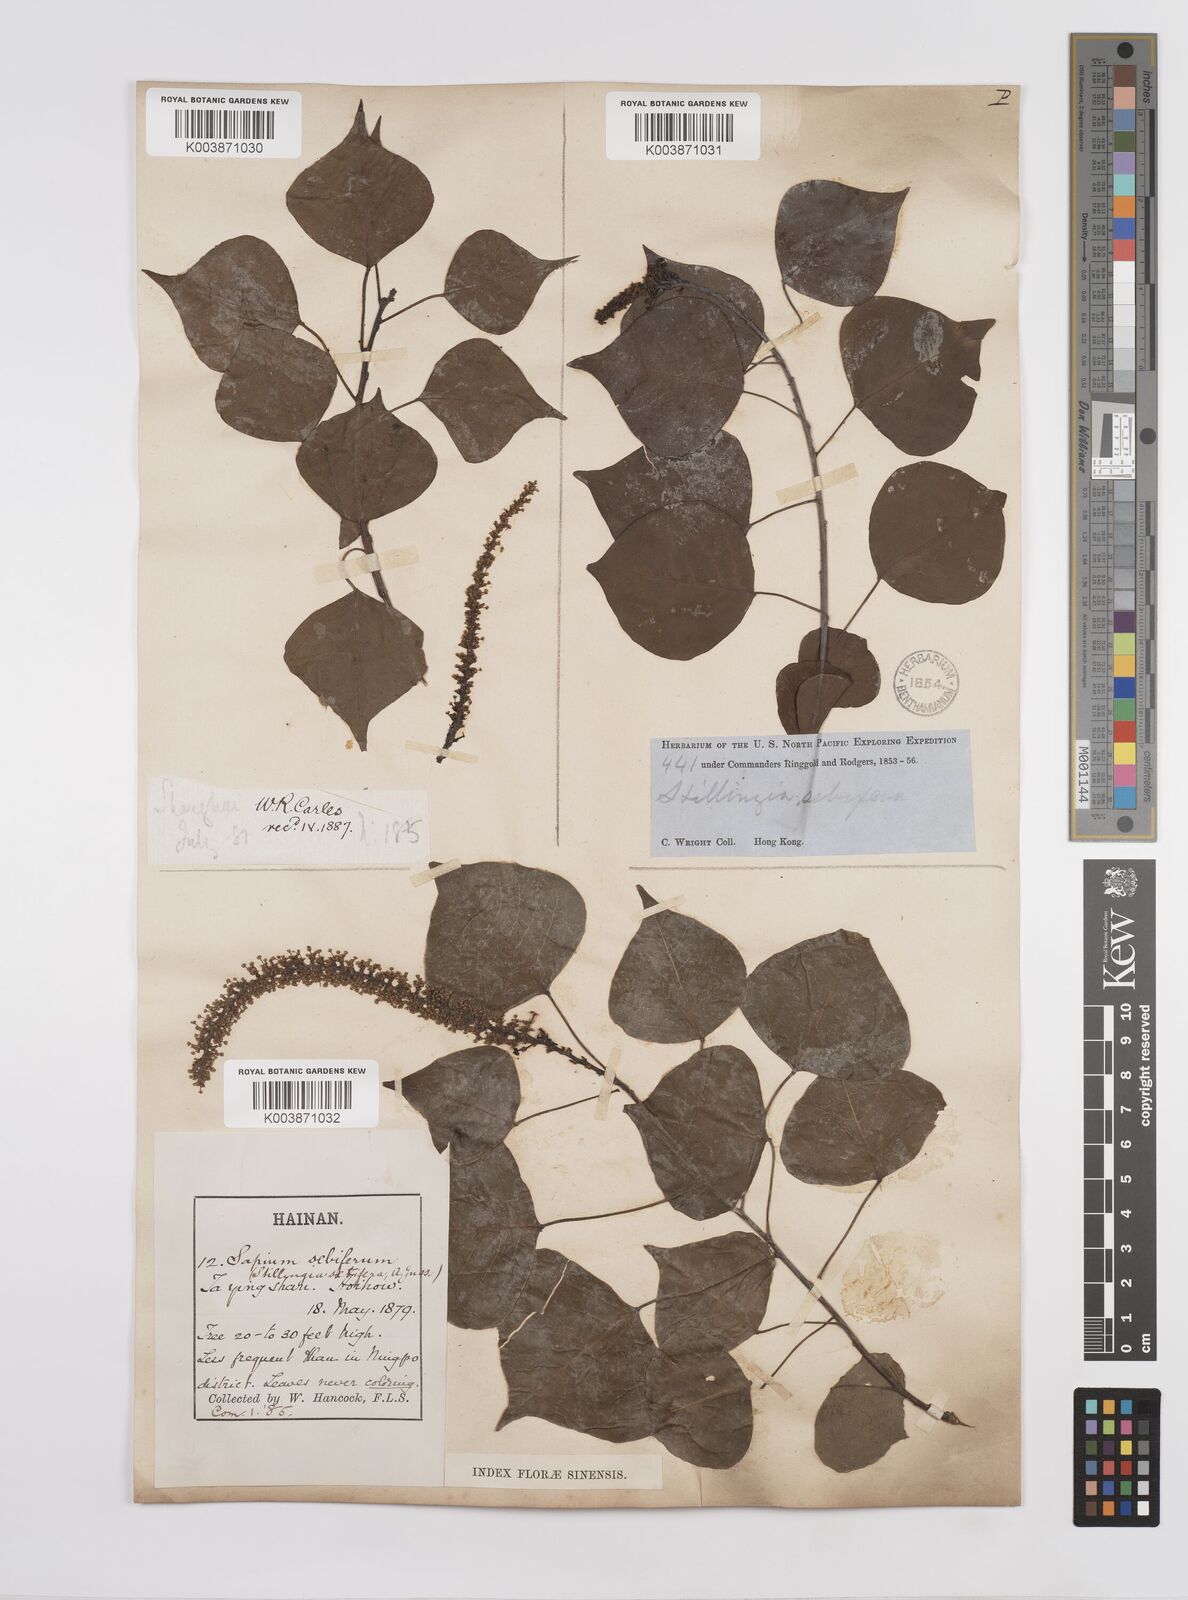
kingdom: Plantae
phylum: Tracheophyta
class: Magnoliopsida
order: Malpighiales
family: Euphorbiaceae
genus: Triadica
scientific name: Triadica sebifera
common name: Chinese tallow
